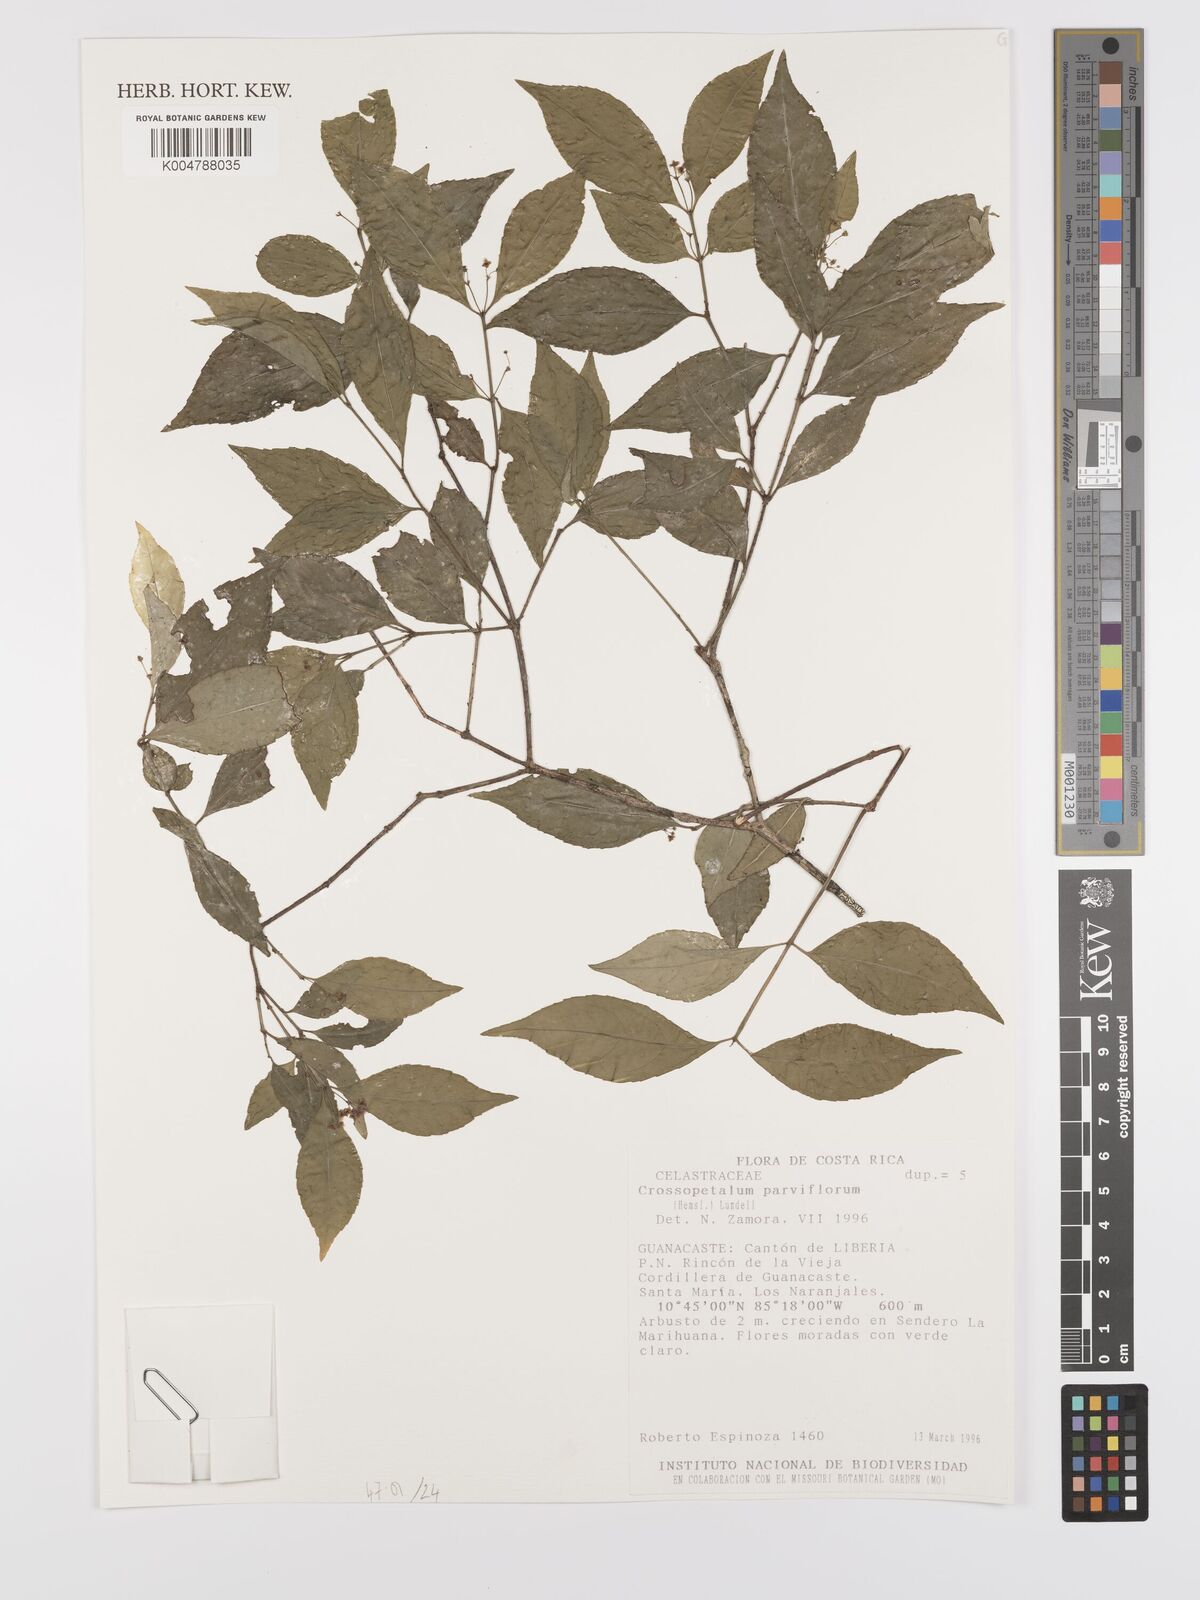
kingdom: Plantae
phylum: Tracheophyta
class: Magnoliopsida
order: Celastrales
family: Celastraceae
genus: Crossopetalum
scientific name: Crossopetalum parviflorum
